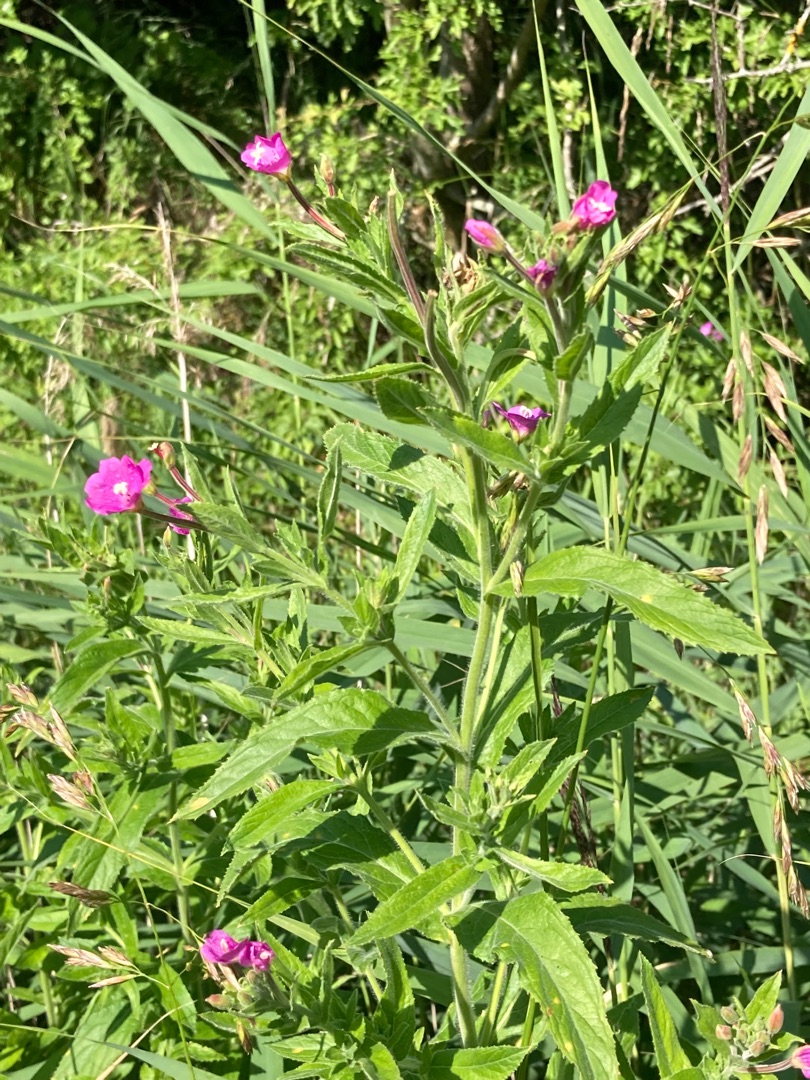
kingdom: Plantae
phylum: Tracheophyta
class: Magnoliopsida
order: Myrtales
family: Onagraceae
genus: Epilobium
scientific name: Epilobium hirsutum
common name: Lådden dueurt
